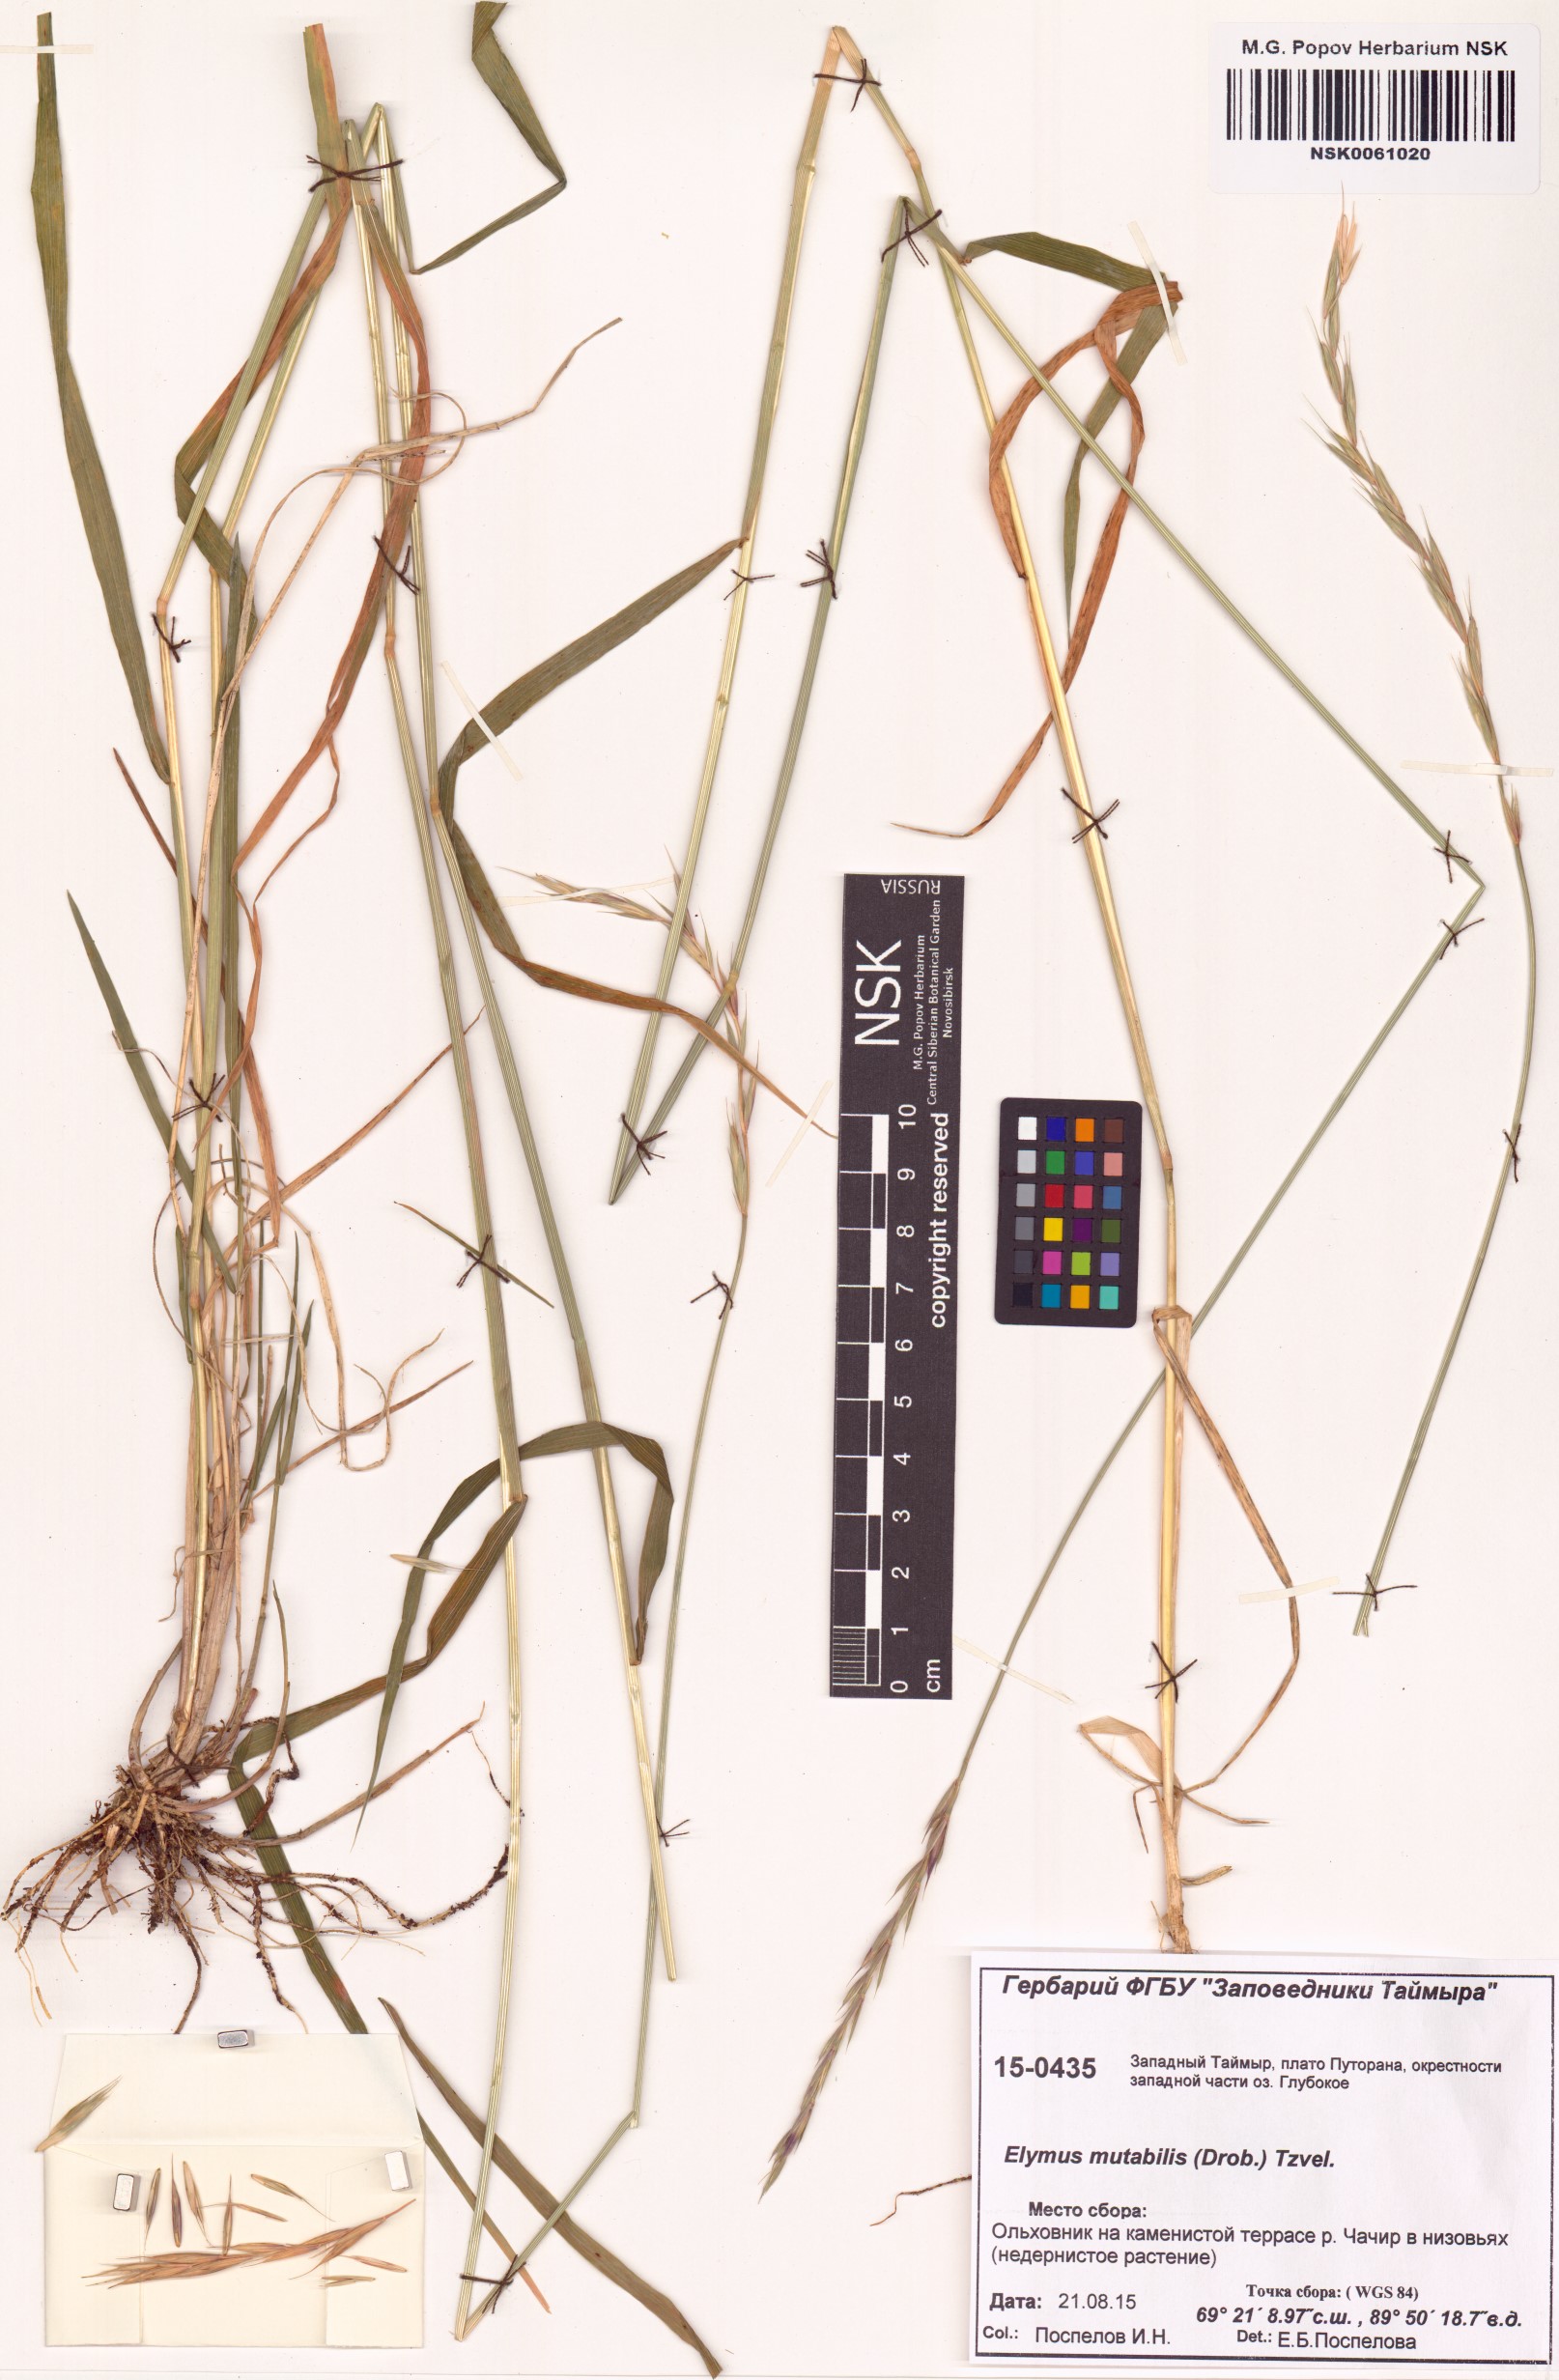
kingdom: Plantae
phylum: Tracheophyta
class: Liliopsida
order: Poales
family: Poaceae
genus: Elymus
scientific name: Elymus mutabilis
